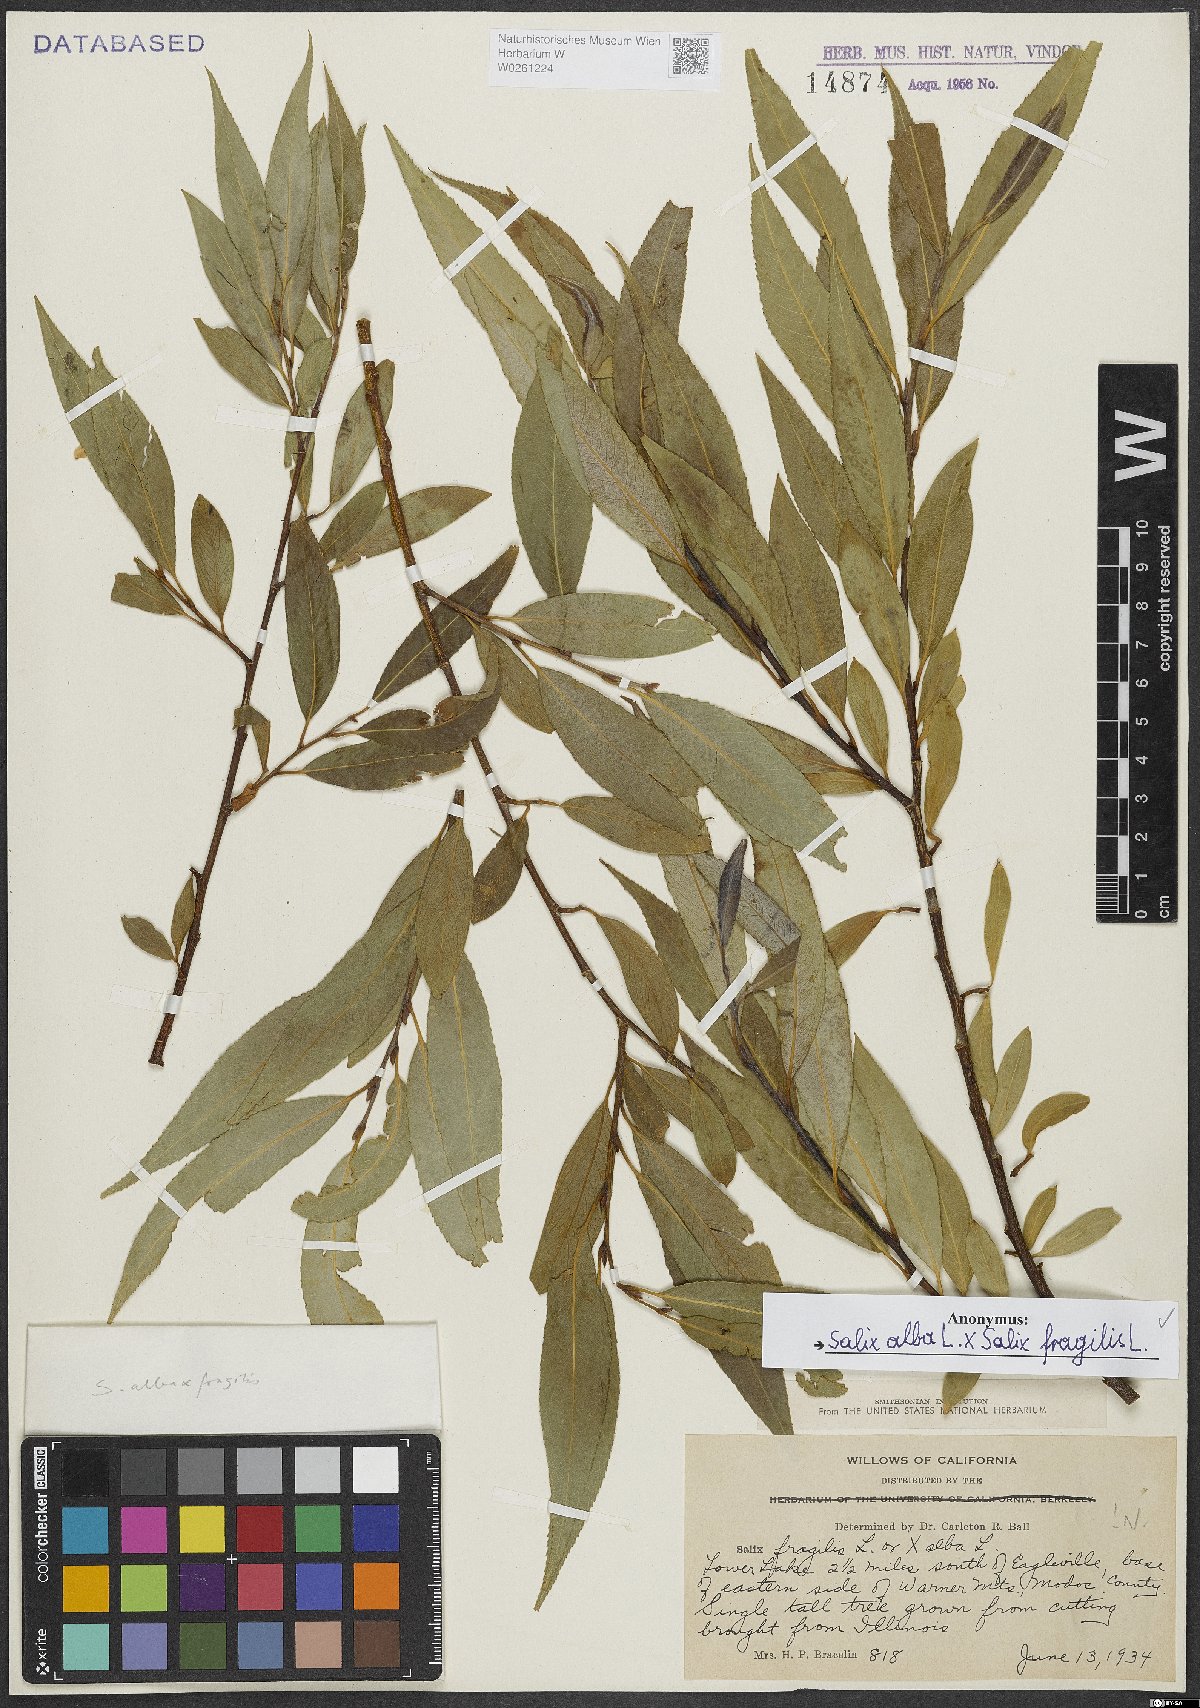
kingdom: Plantae
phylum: Tracheophyta
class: Magnoliopsida
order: Malpighiales
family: Salicaceae
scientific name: Salicaceae
